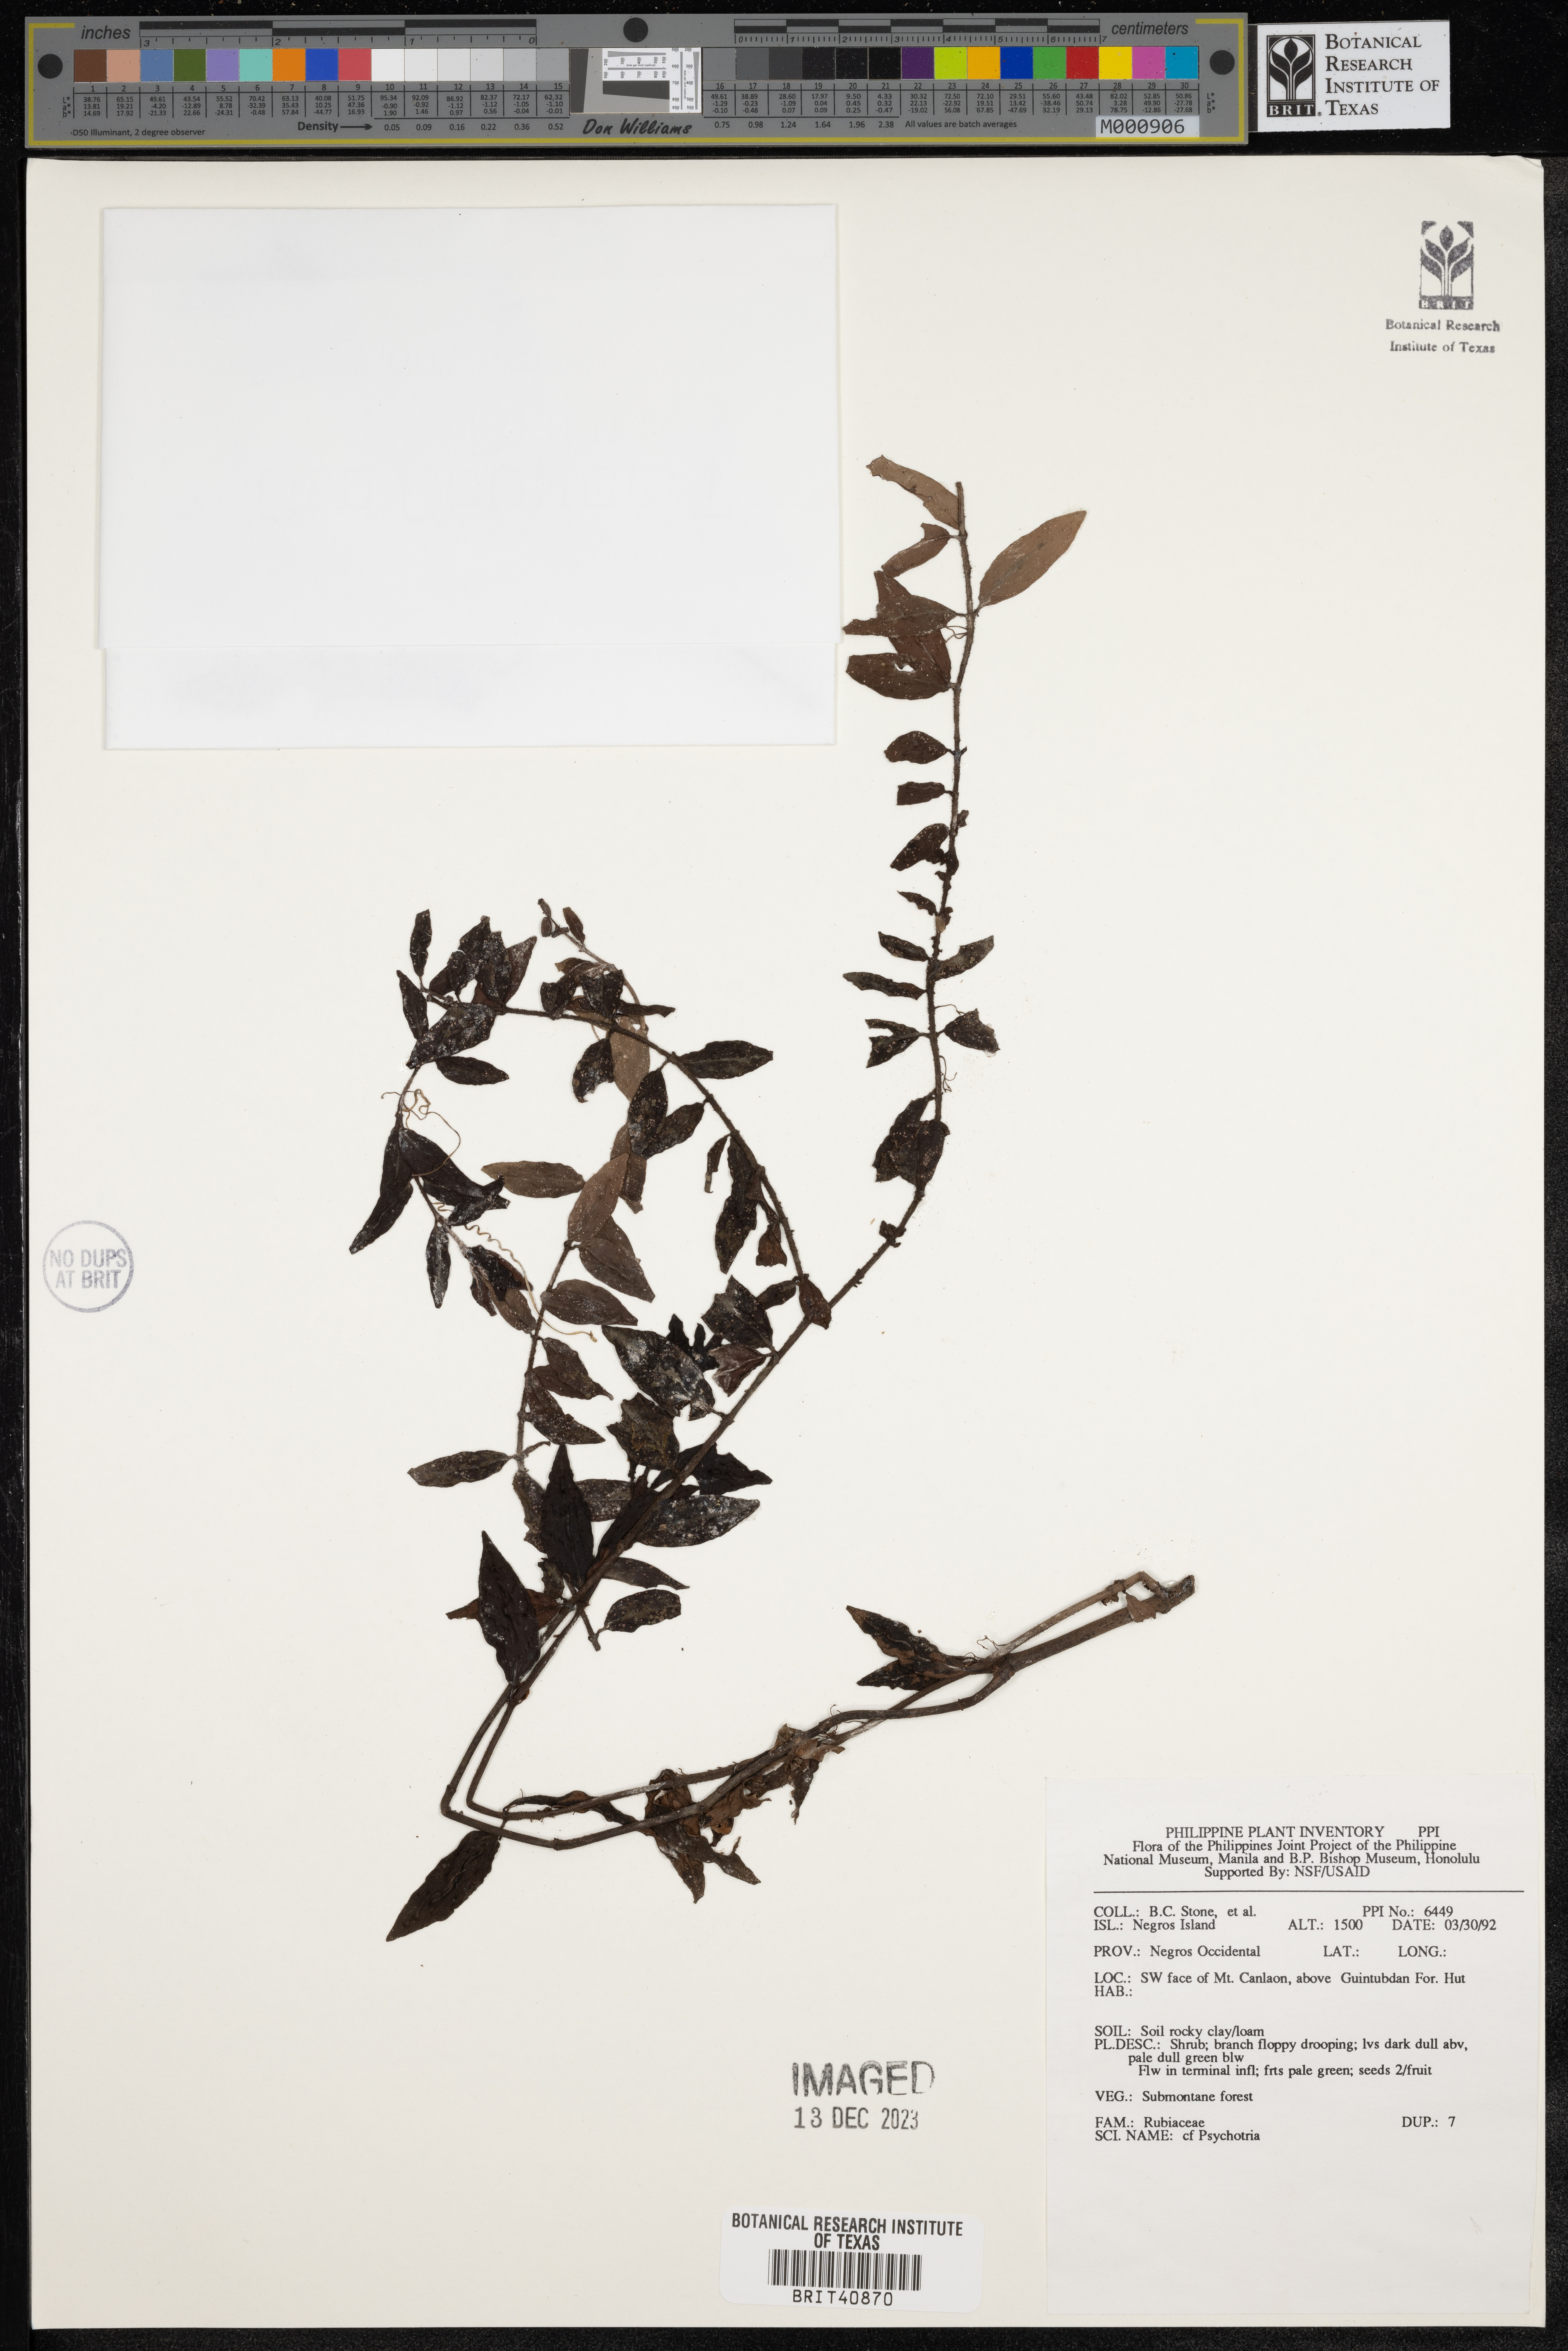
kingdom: Plantae
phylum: Tracheophyta
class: Magnoliopsida
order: Gentianales
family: Rubiaceae
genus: Psychotria
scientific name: Psychotria
